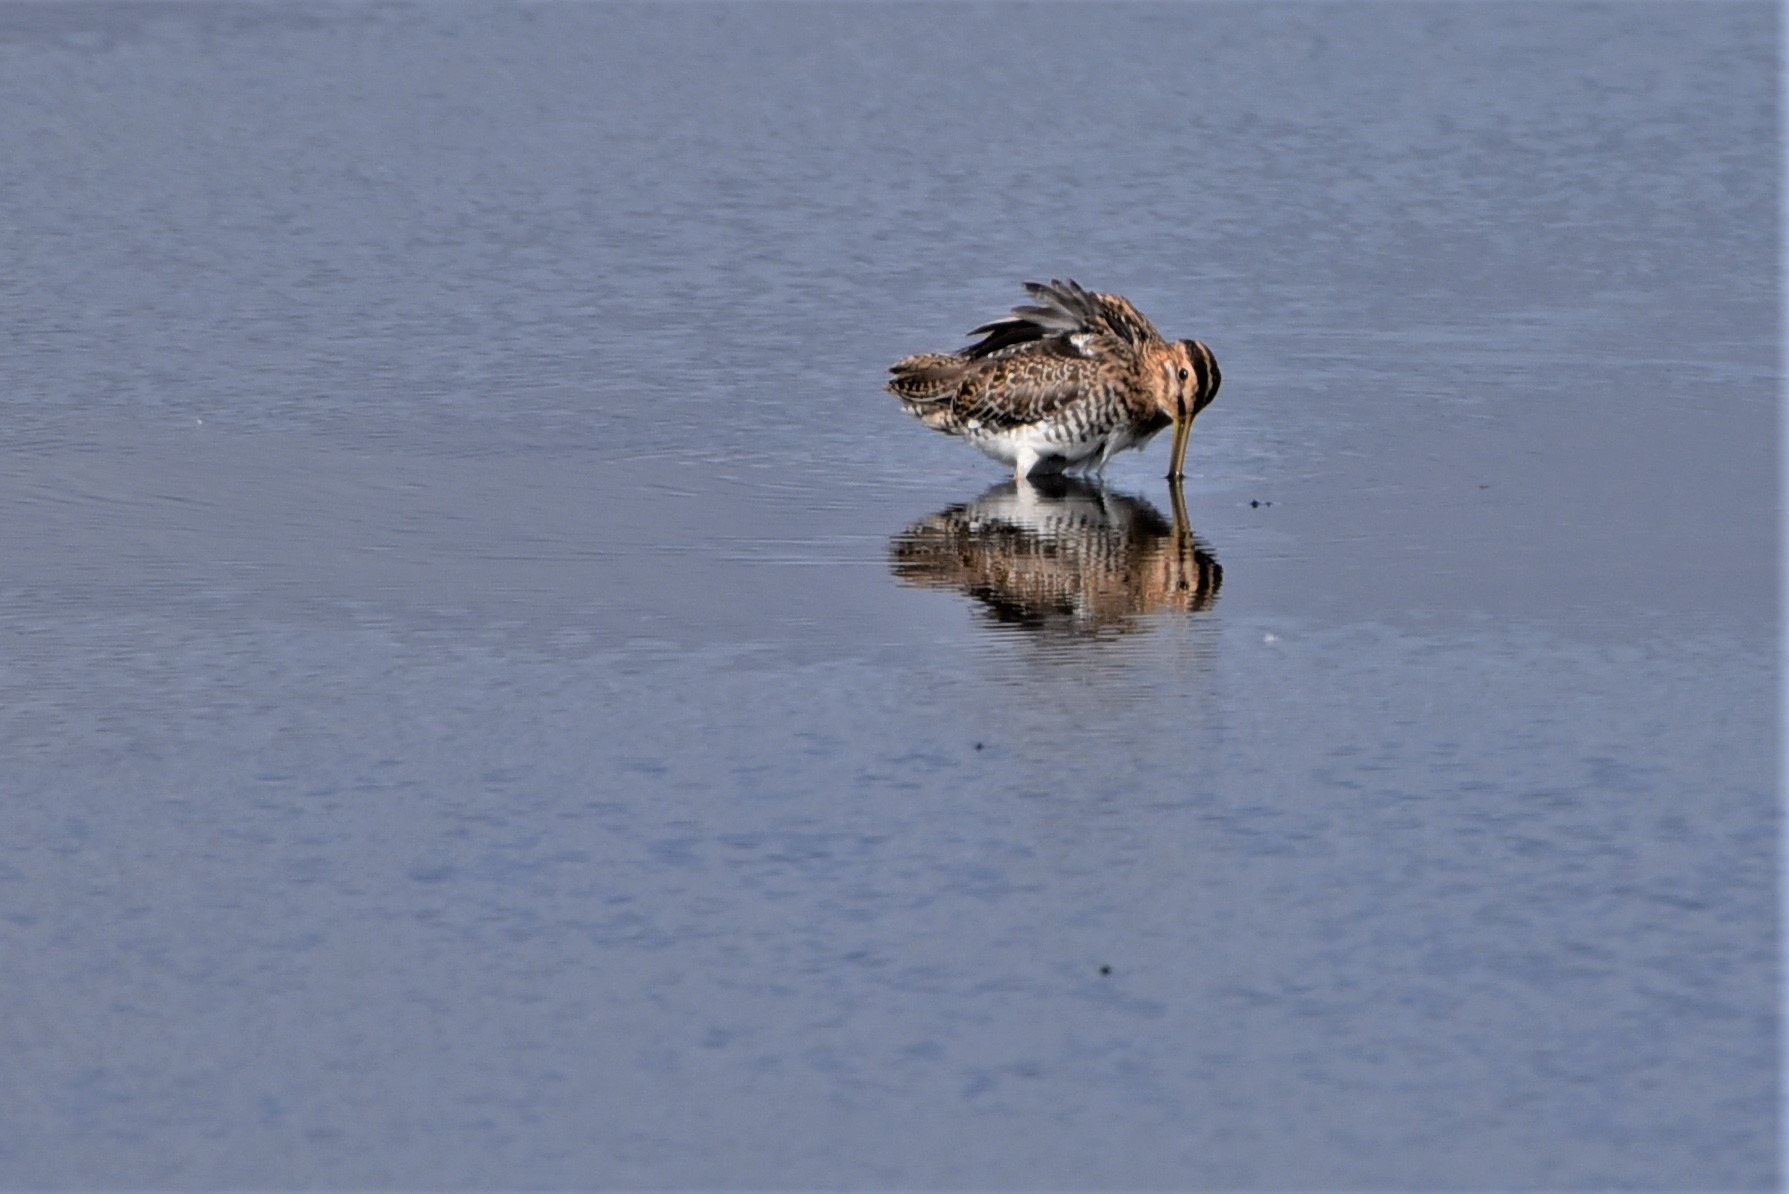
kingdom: Animalia
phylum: Chordata
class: Aves
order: Charadriiformes
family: Scolopacidae
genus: Gallinago
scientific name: Gallinago gallinago
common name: Dobbeltbekkasin
